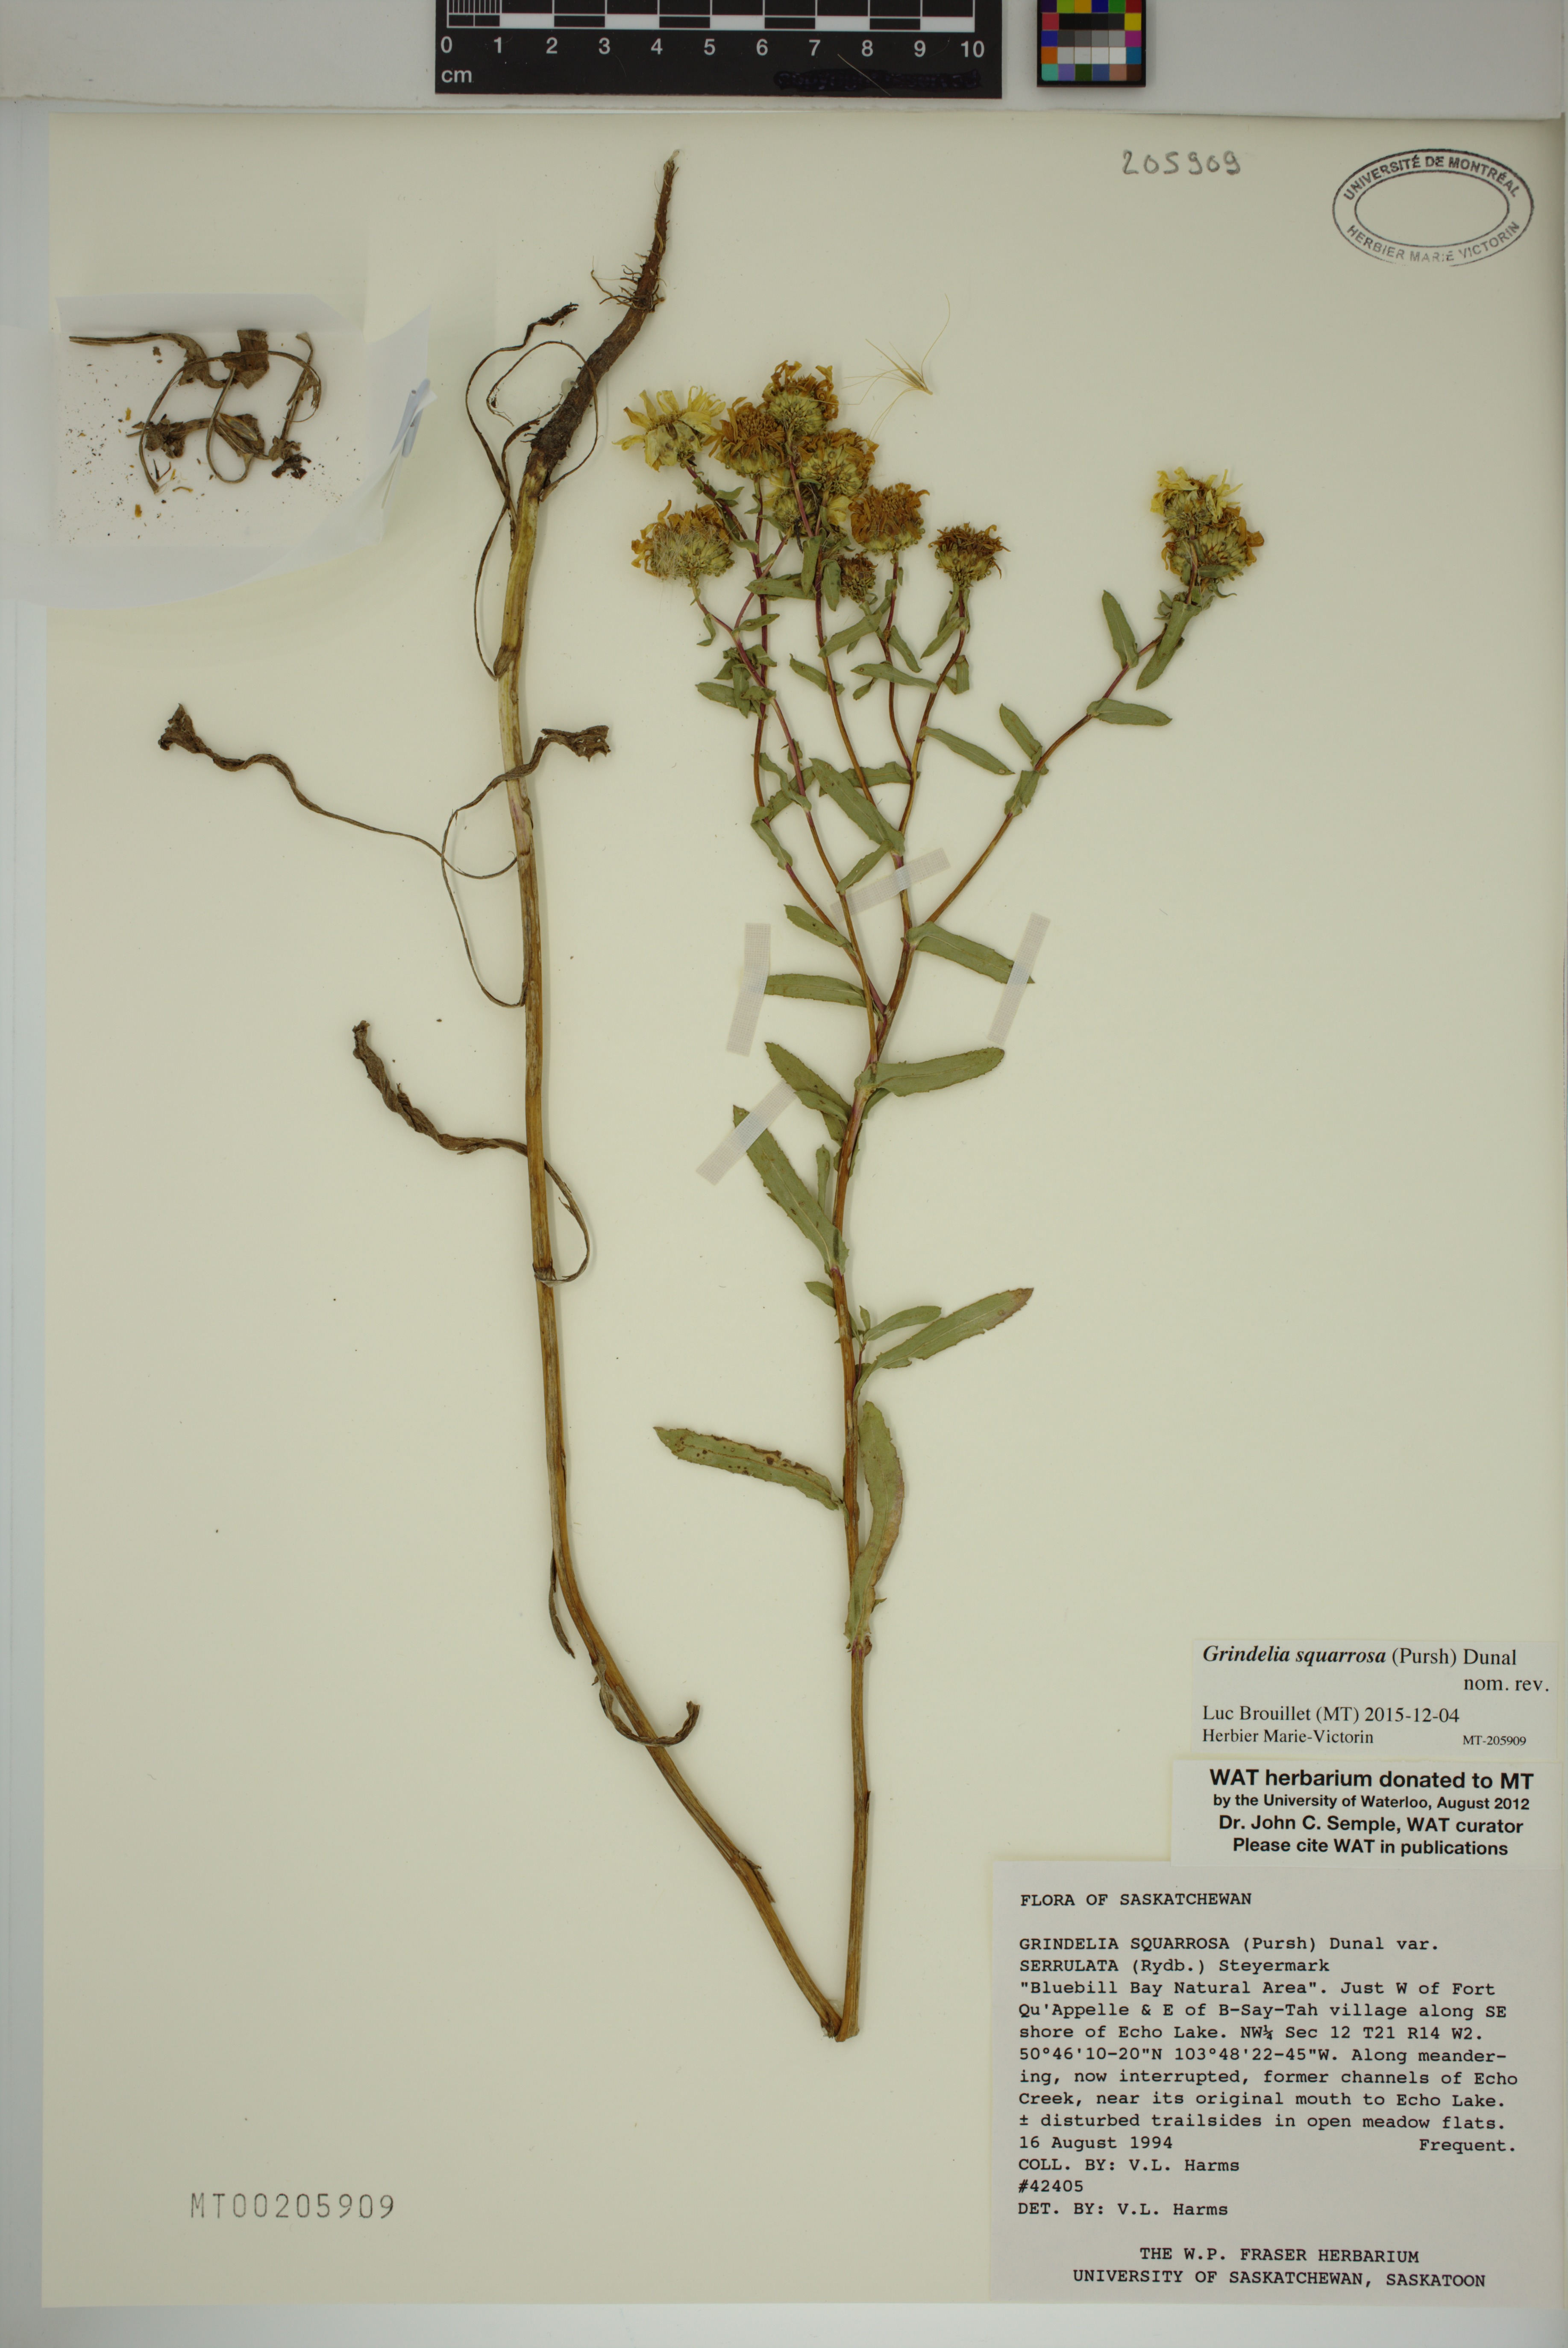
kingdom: Plantae
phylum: Tracheophyta
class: Magnoliopsida
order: Asterales
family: Asteraceae
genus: Grindelia
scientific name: Grindelia squarrosa
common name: Curly-cup gumweed
